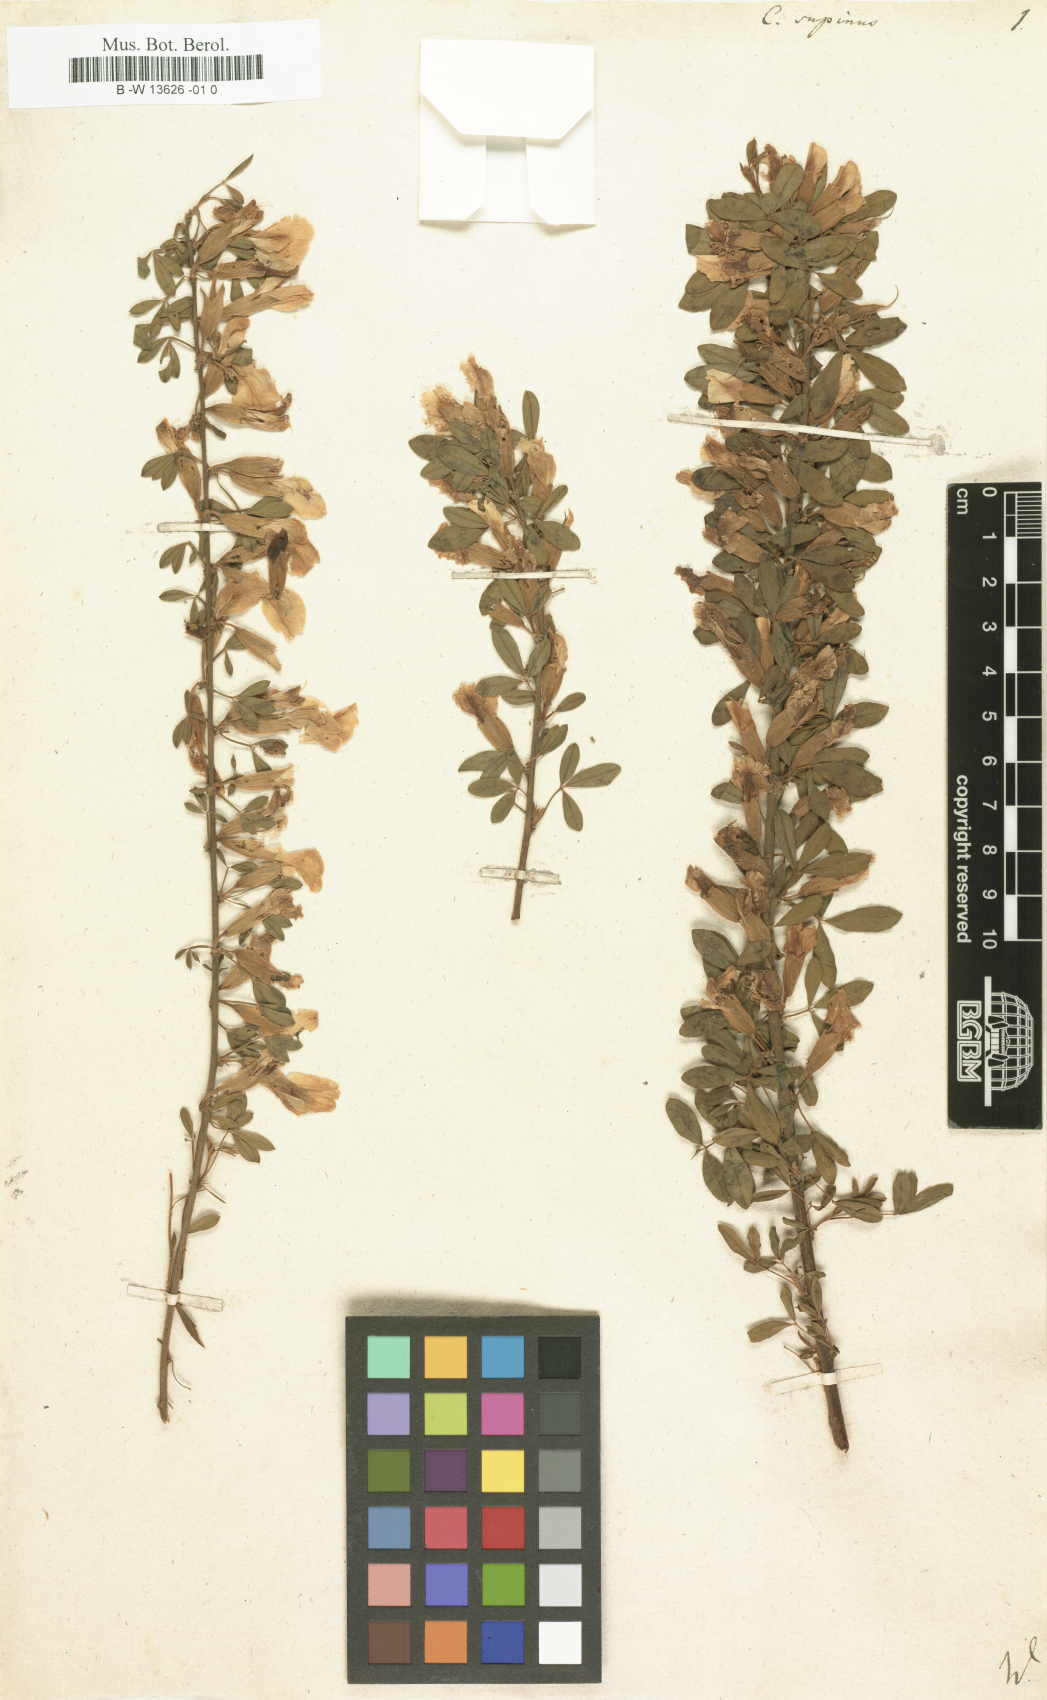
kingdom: Plantae
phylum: Tracheophyta
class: Magnoliopsida
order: Fabales
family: Fabaceae
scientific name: Fabaceae
